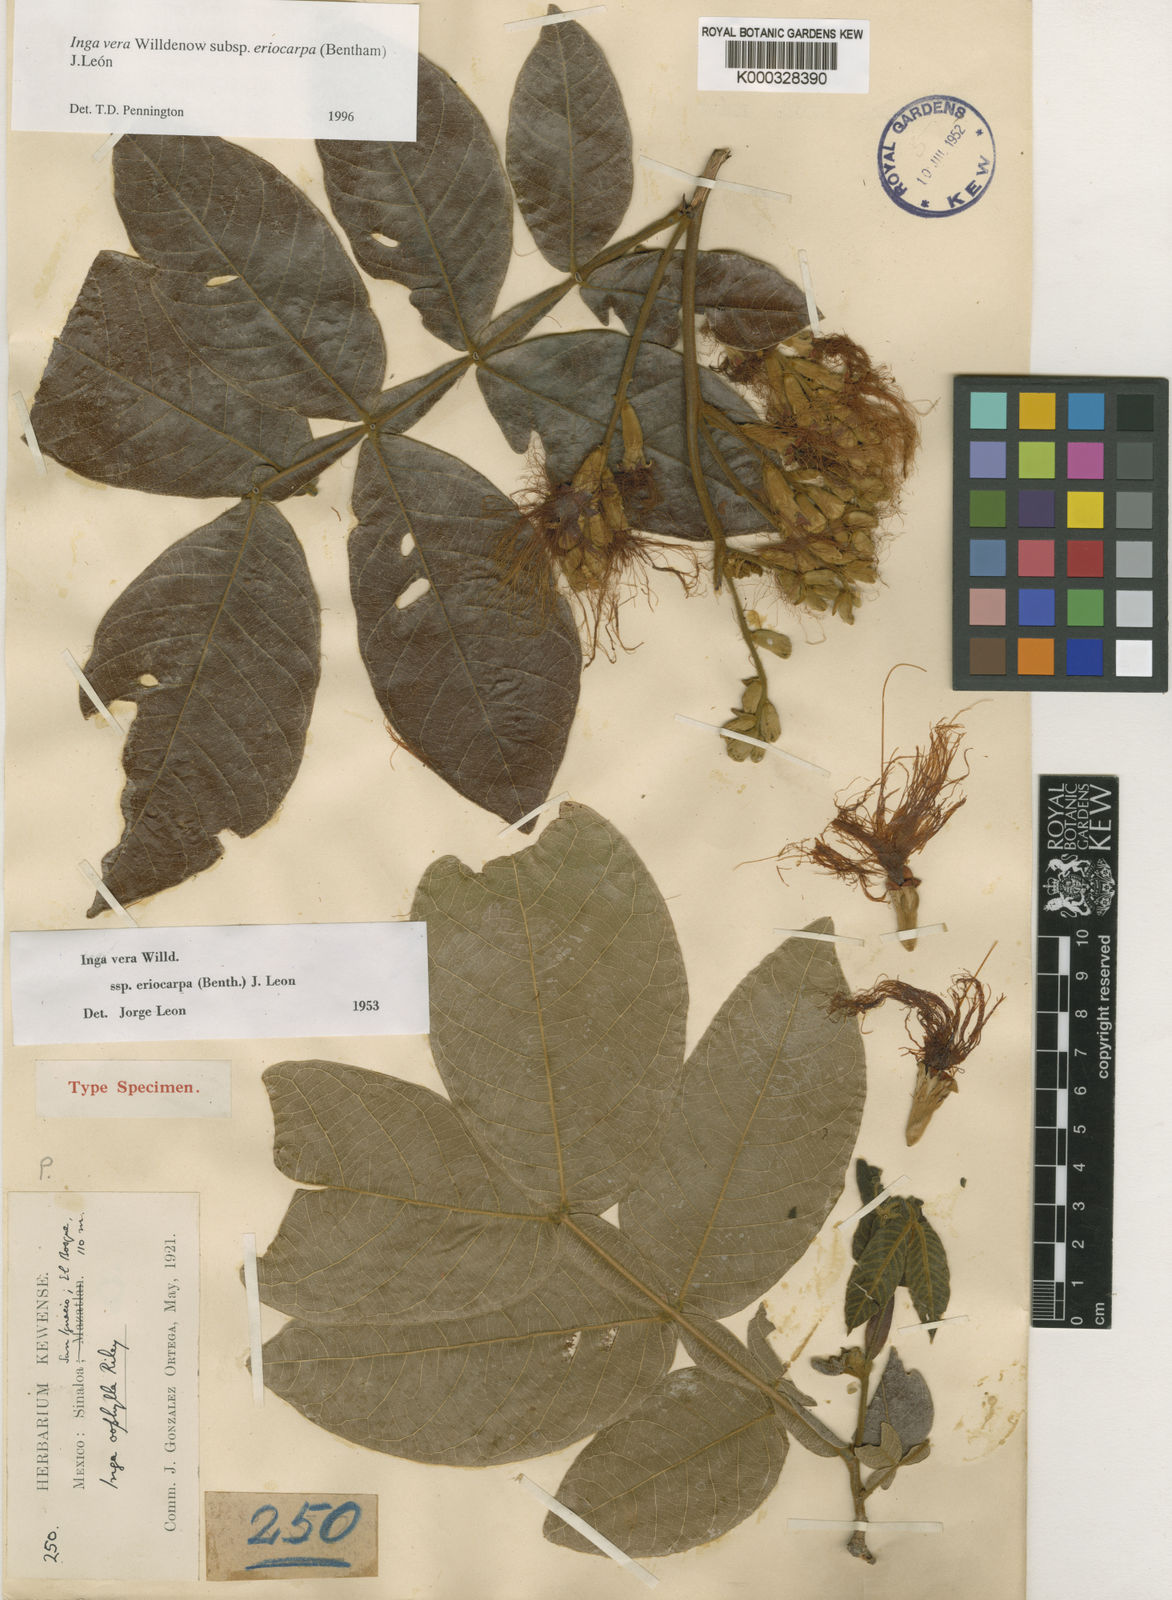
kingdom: Plantae
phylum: Tracheophyta
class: Magnoliopsida
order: Fabales
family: Fabaceae
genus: Inga
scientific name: Inga vera
